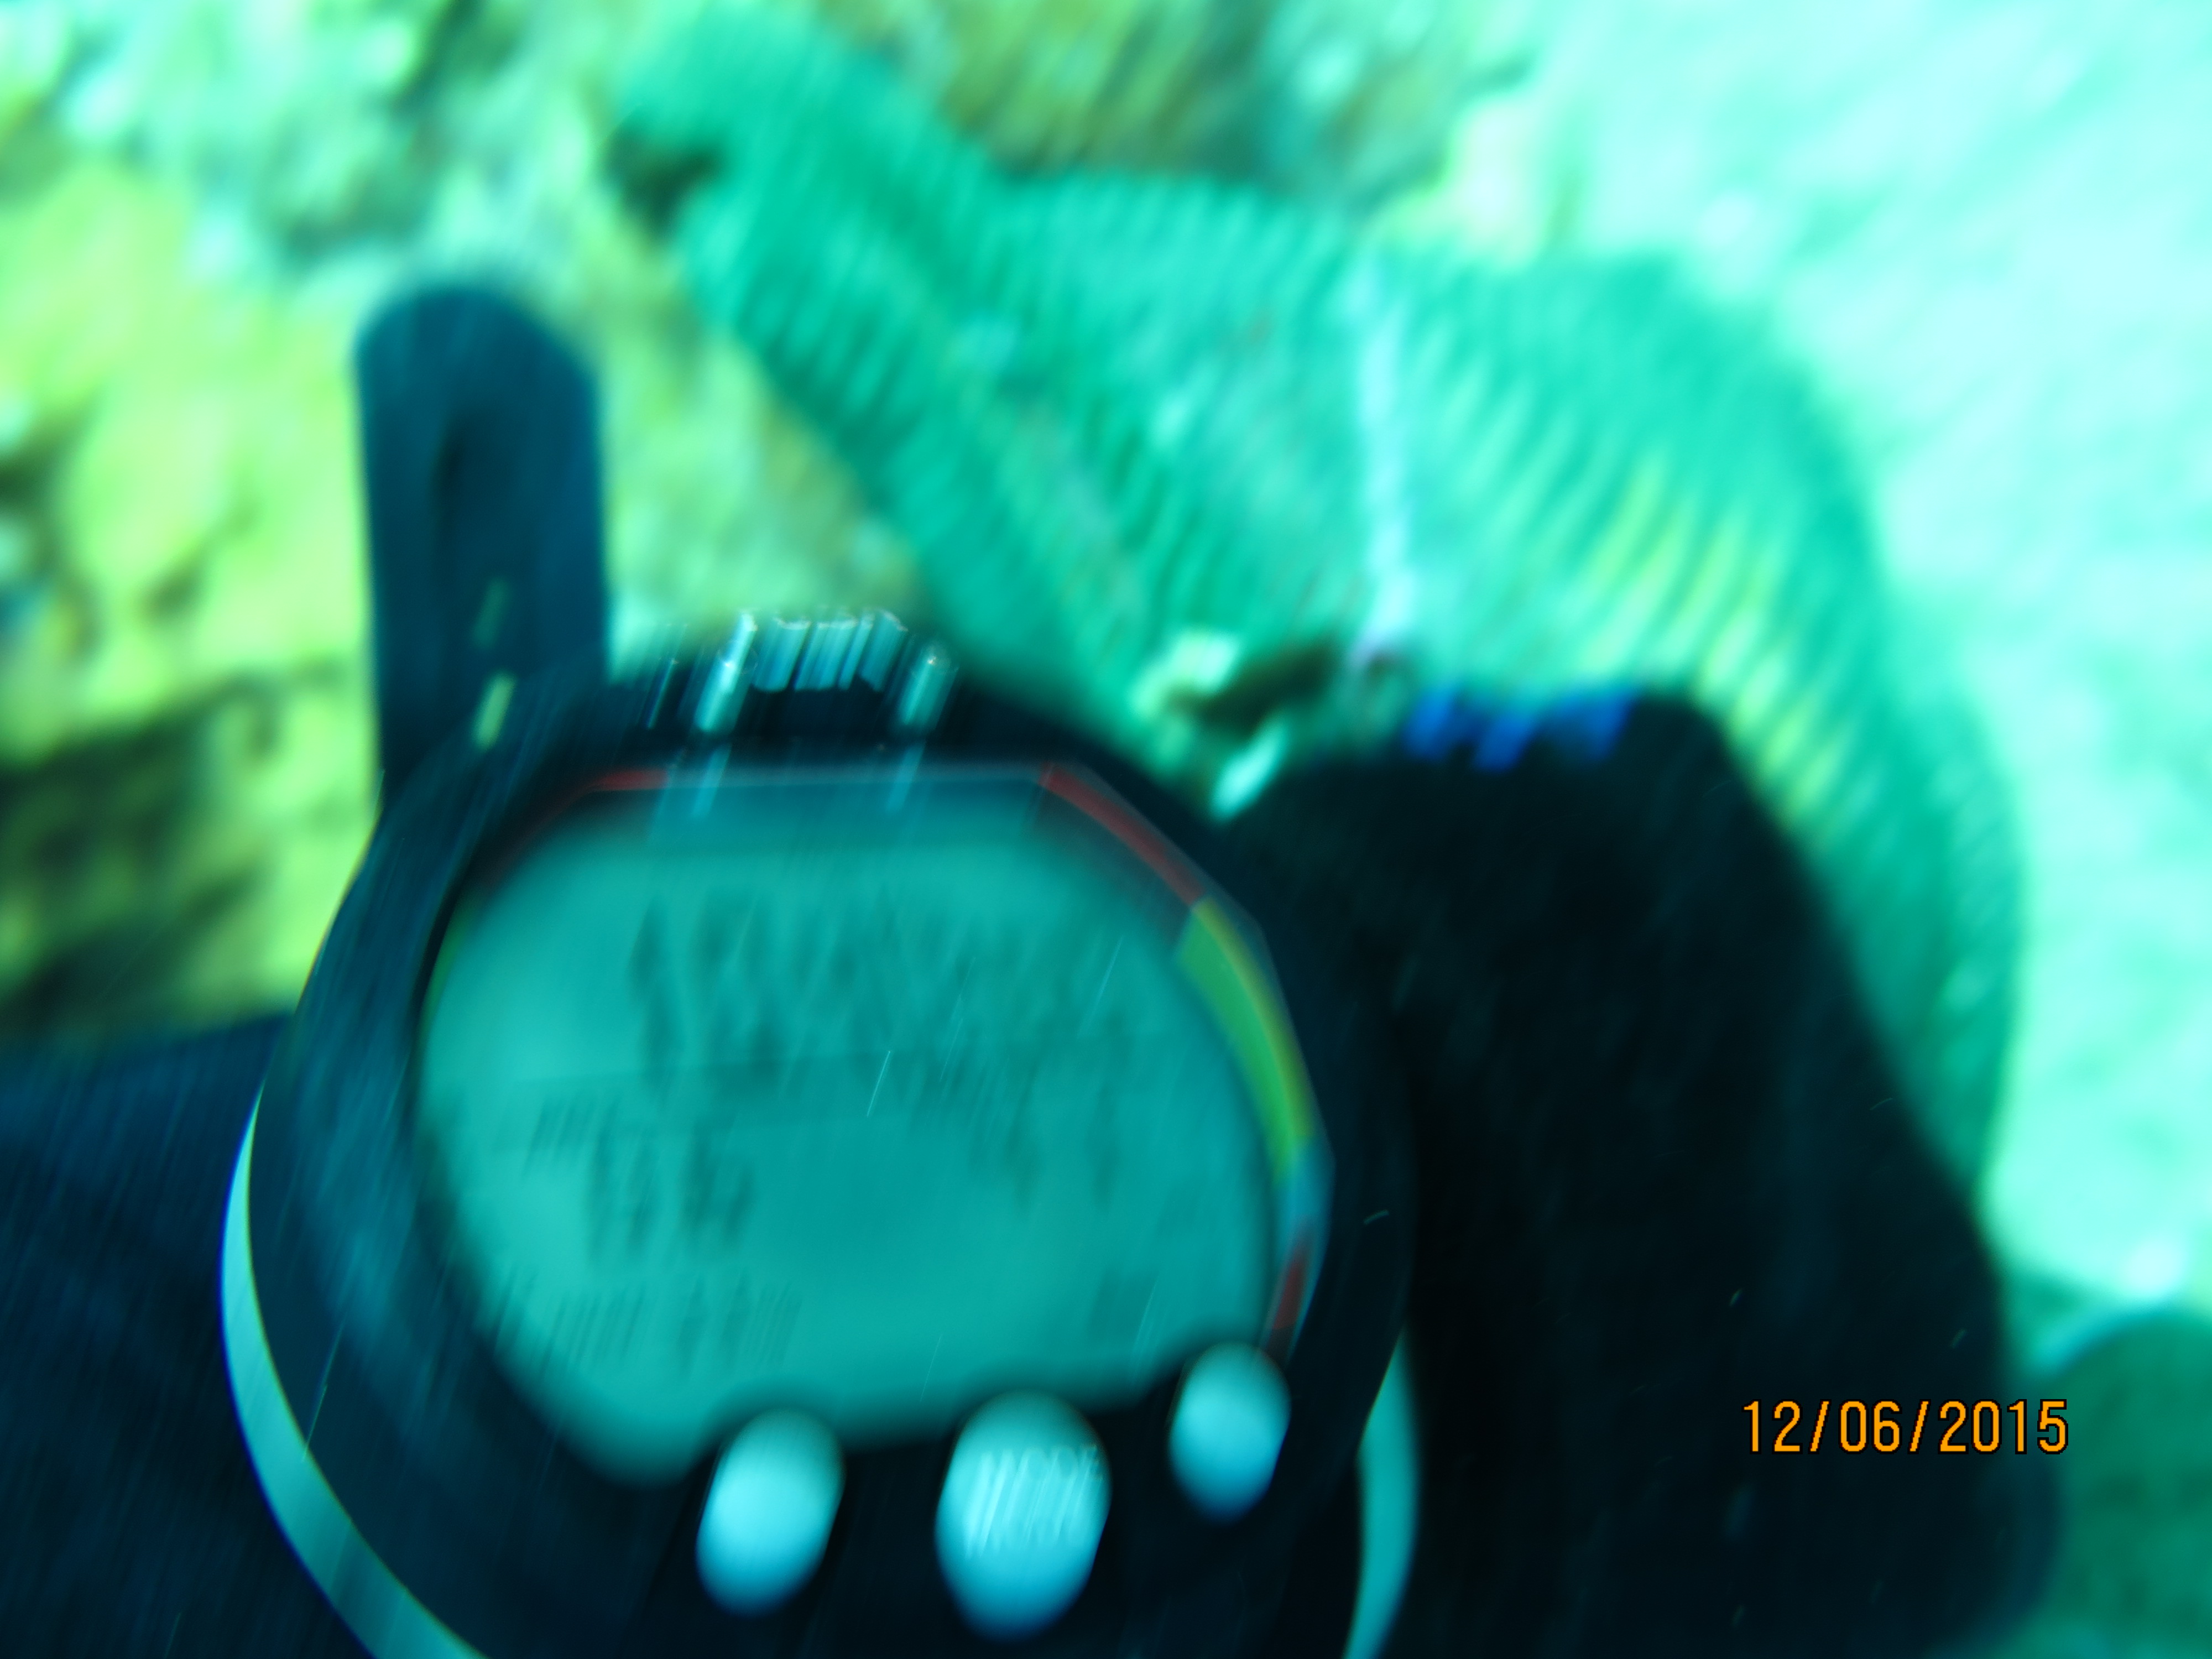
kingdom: Animalia
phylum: Cnidaria
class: Anthozoa
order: Malacalcyonacea
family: Gorgoniidae
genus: Gorgonia
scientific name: Gorgonia ventalina
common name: Common sea fan
